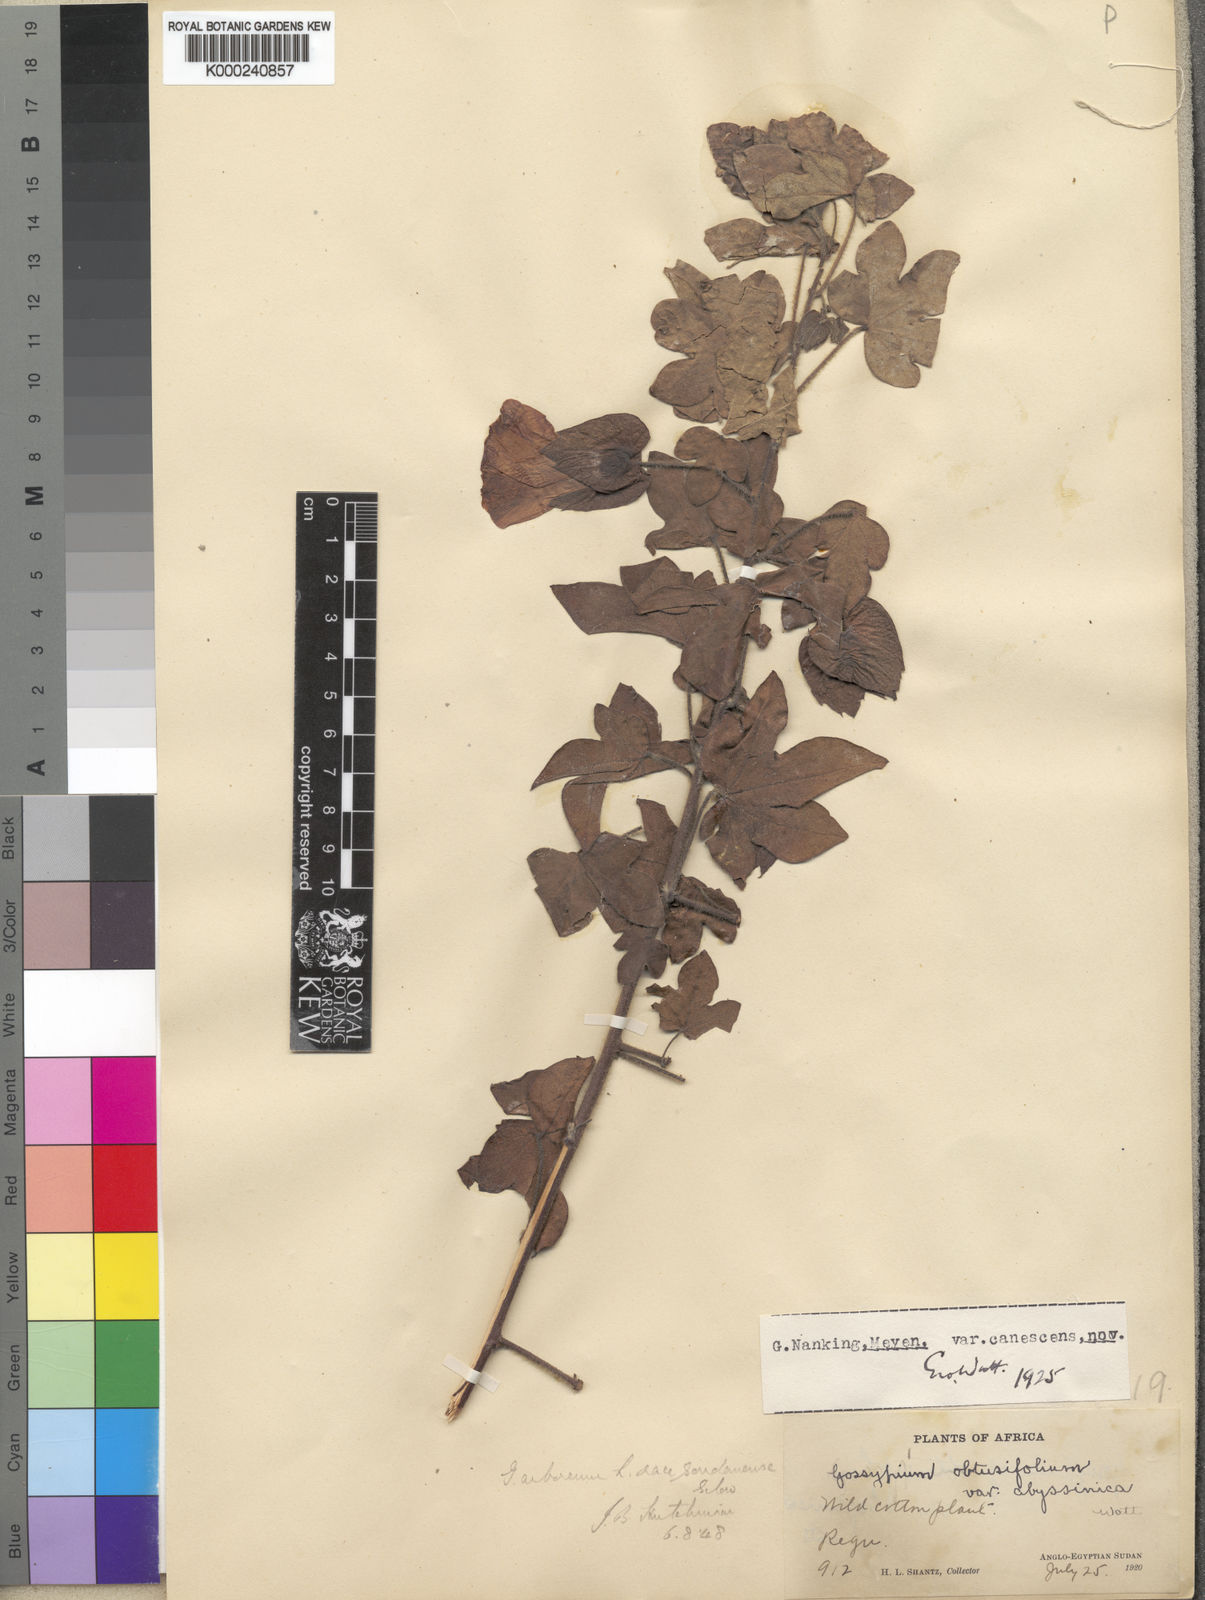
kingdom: Plantae
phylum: Tracheophyta
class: Magnoliopsida
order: Malvales
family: Malvaceae
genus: Gossypium
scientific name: Gossypium arboreum
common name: Tree cotton
